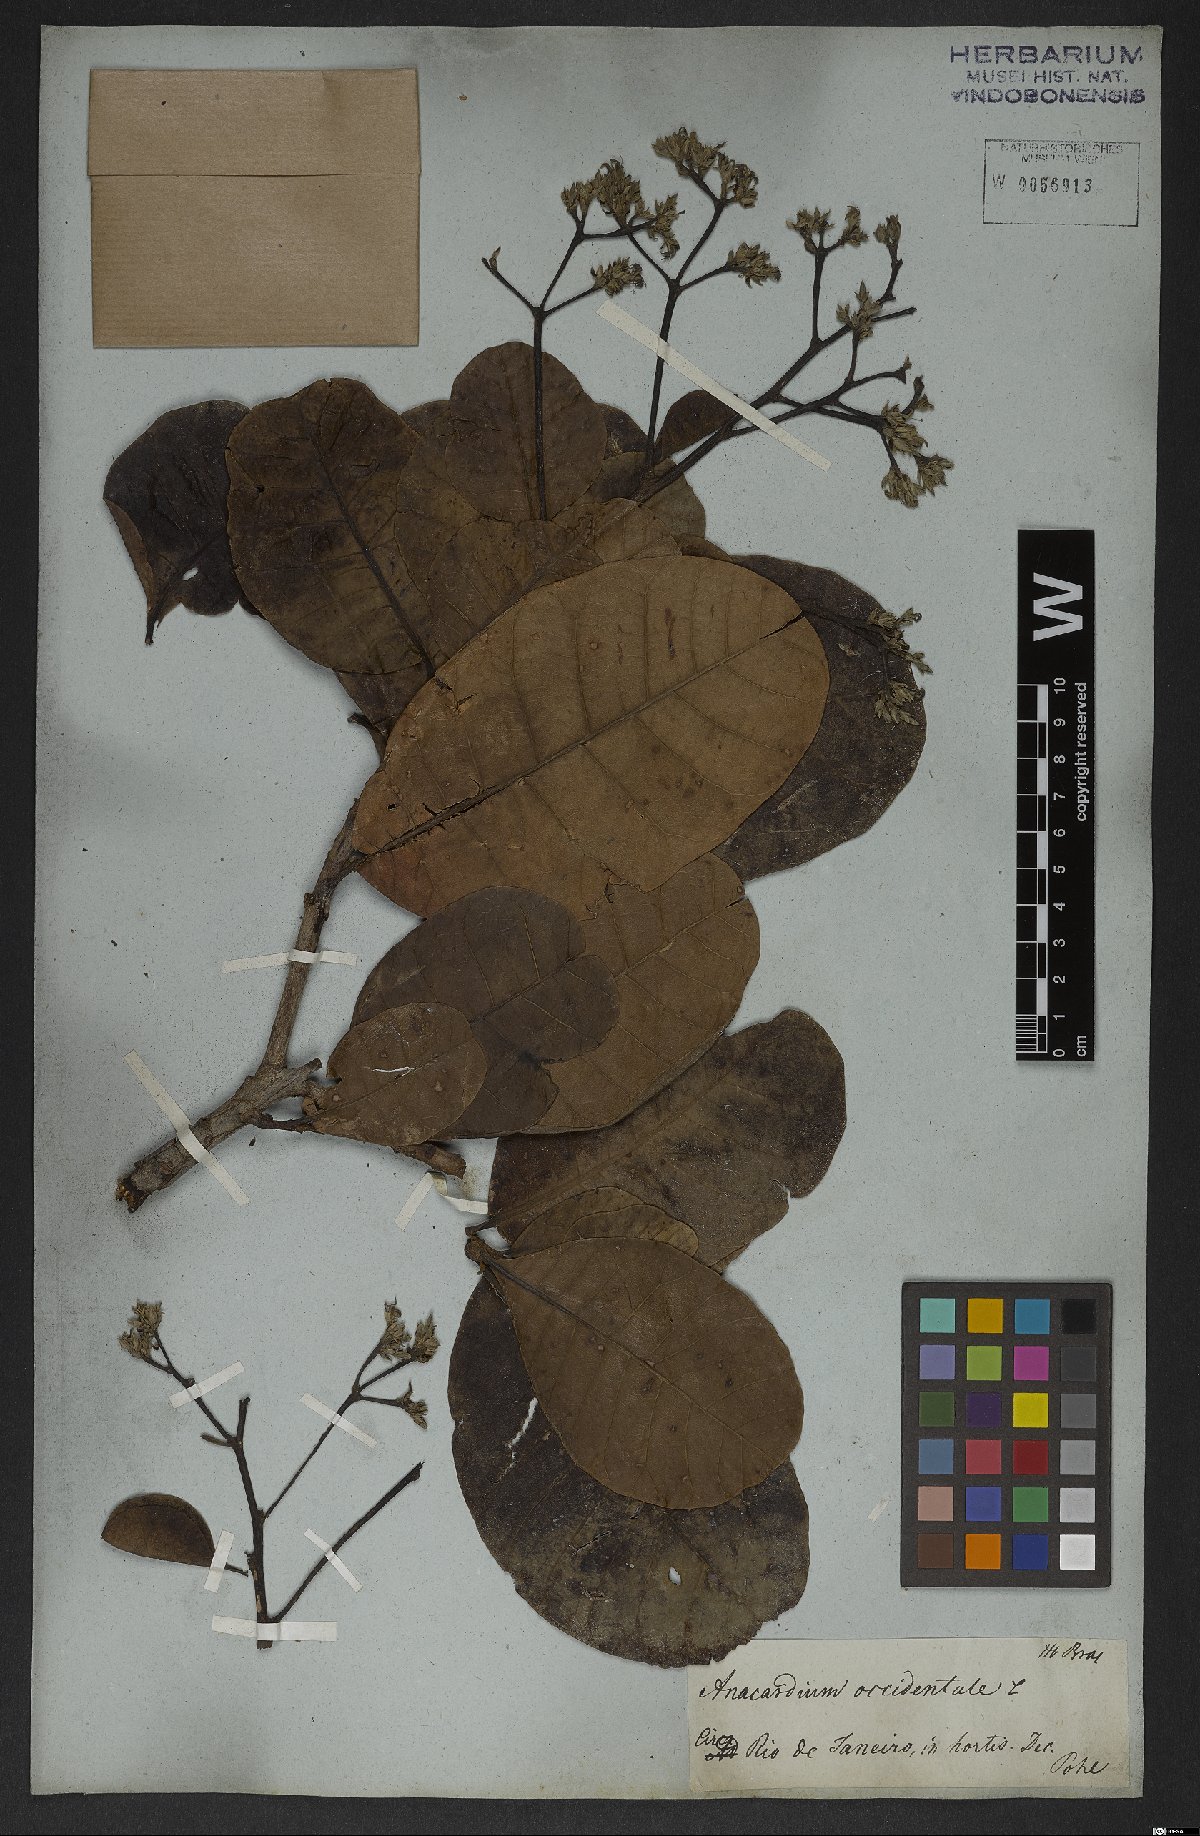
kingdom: Plantae
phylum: Tracheophyta
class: Magnoliopsida
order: Sapindales
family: Anacardiaceae
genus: Anacardium
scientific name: Anacardium occidentale
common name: Cashew
